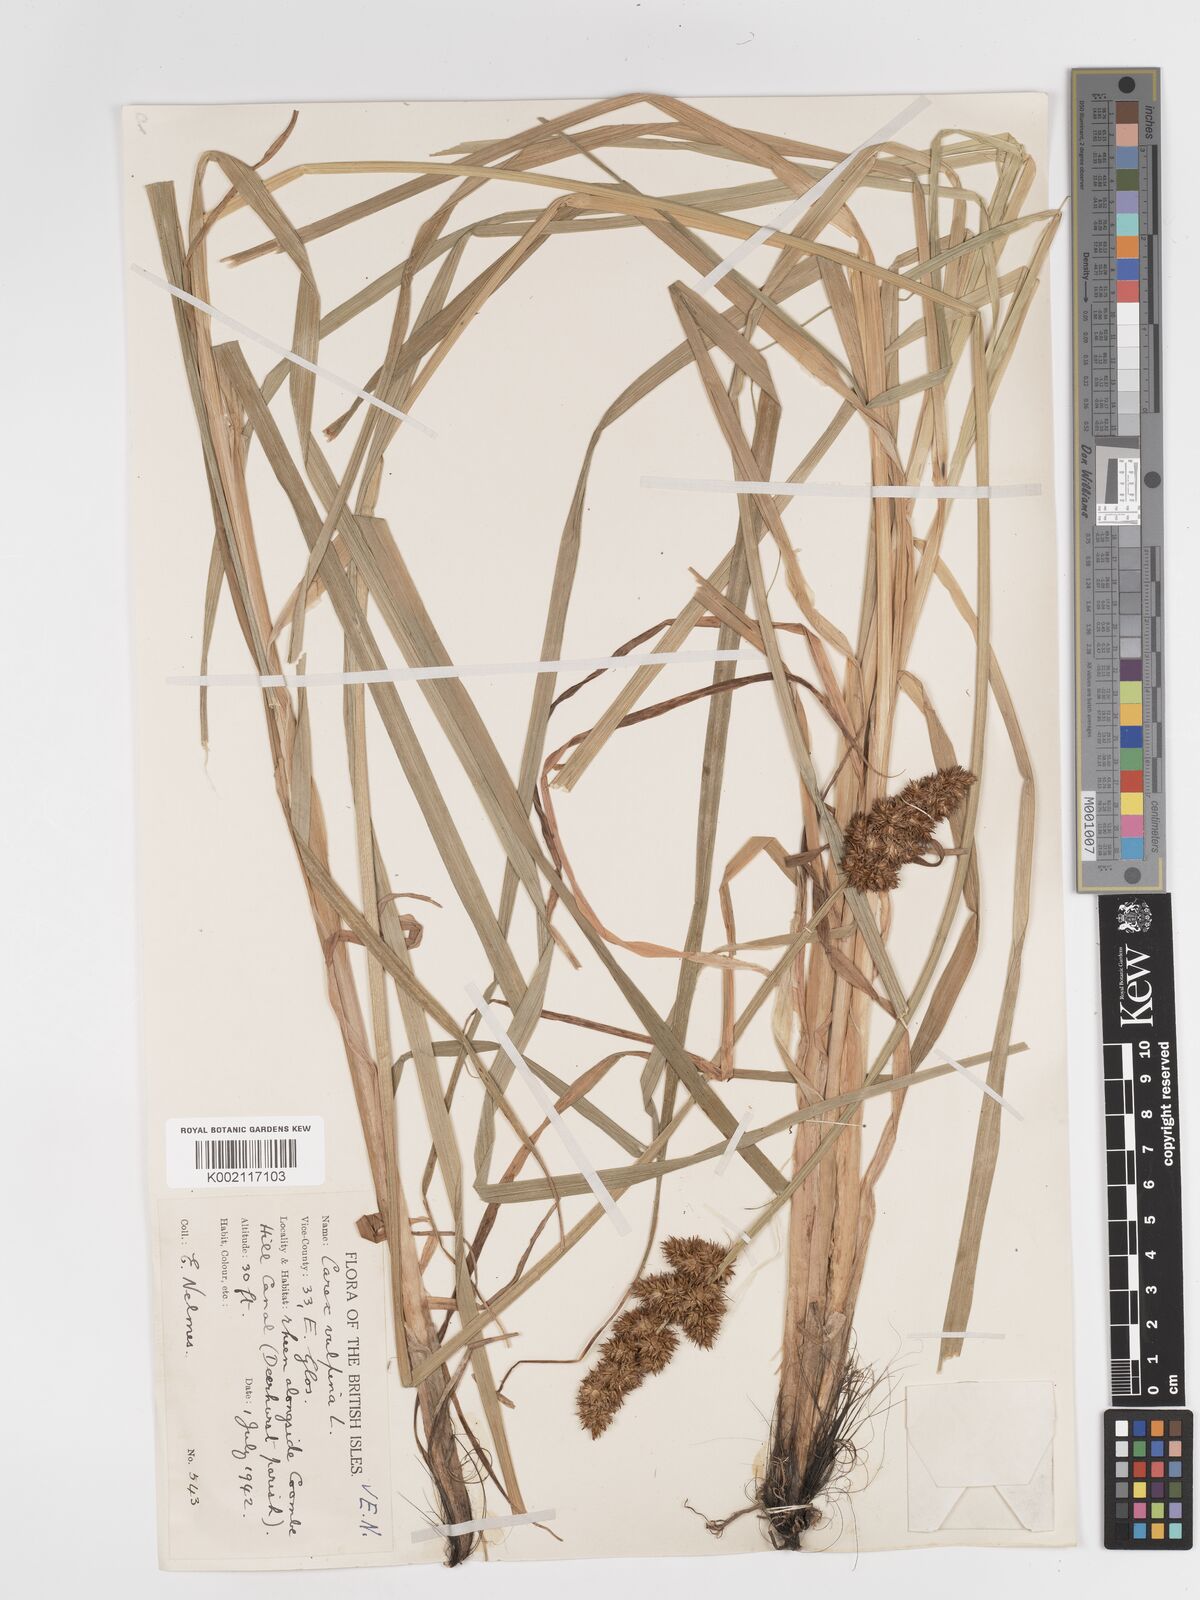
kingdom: Plantae
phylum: Tracheophyta
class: Liliopsida
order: Poales
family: Cyperaceae
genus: Carex
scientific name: Carex vulpina
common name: True fox-sedge
